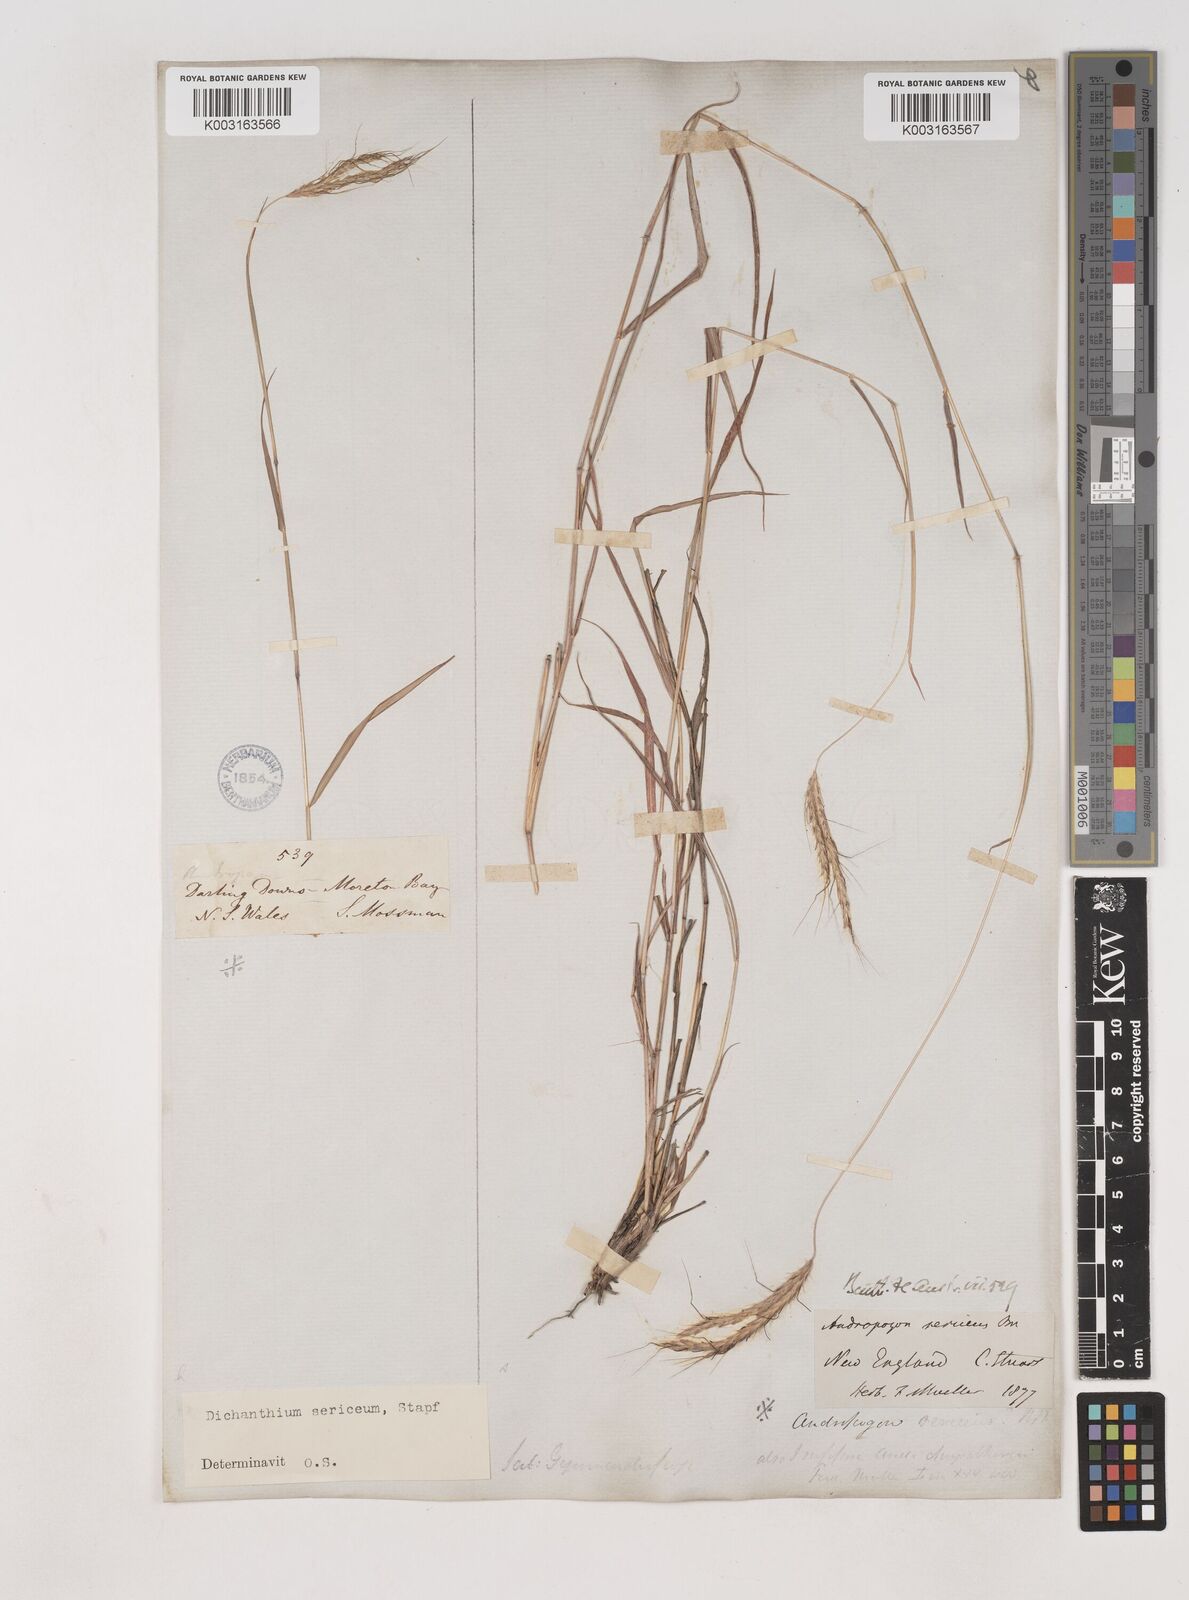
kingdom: Plantae
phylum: Tracheophyta
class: Liliopsida
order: Poales
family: Poaceae
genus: Dichanthium
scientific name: Dichanthium
